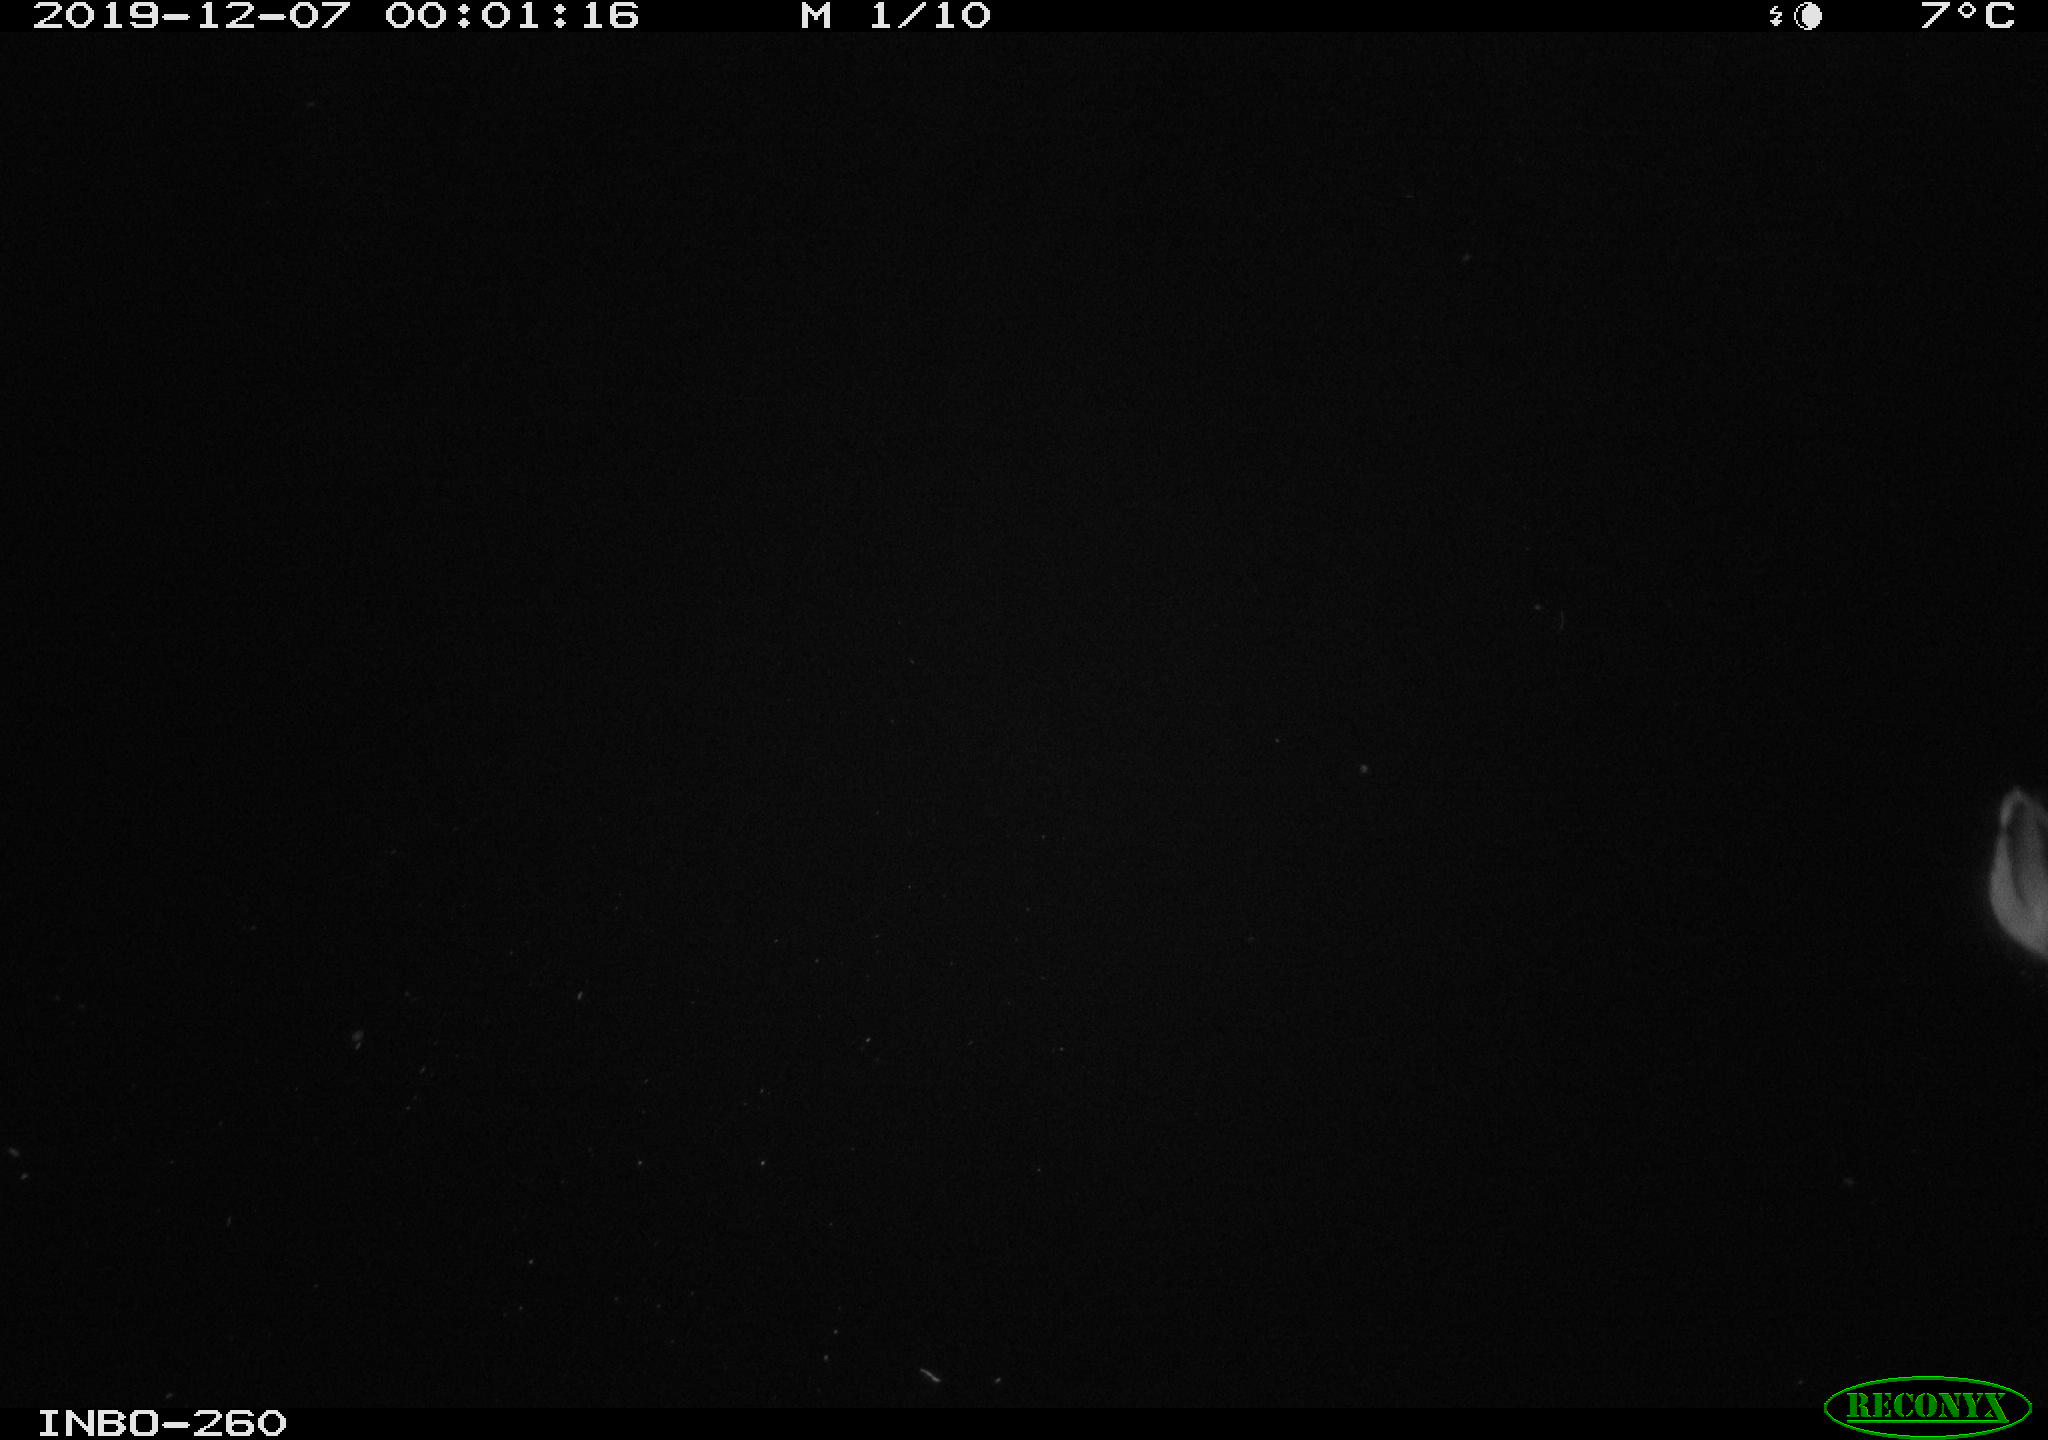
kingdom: Animalia
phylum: Chordata
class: Aves
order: Anseriformes
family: Anatidae
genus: Anas
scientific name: Anas platyrhynchos
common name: Mallard
